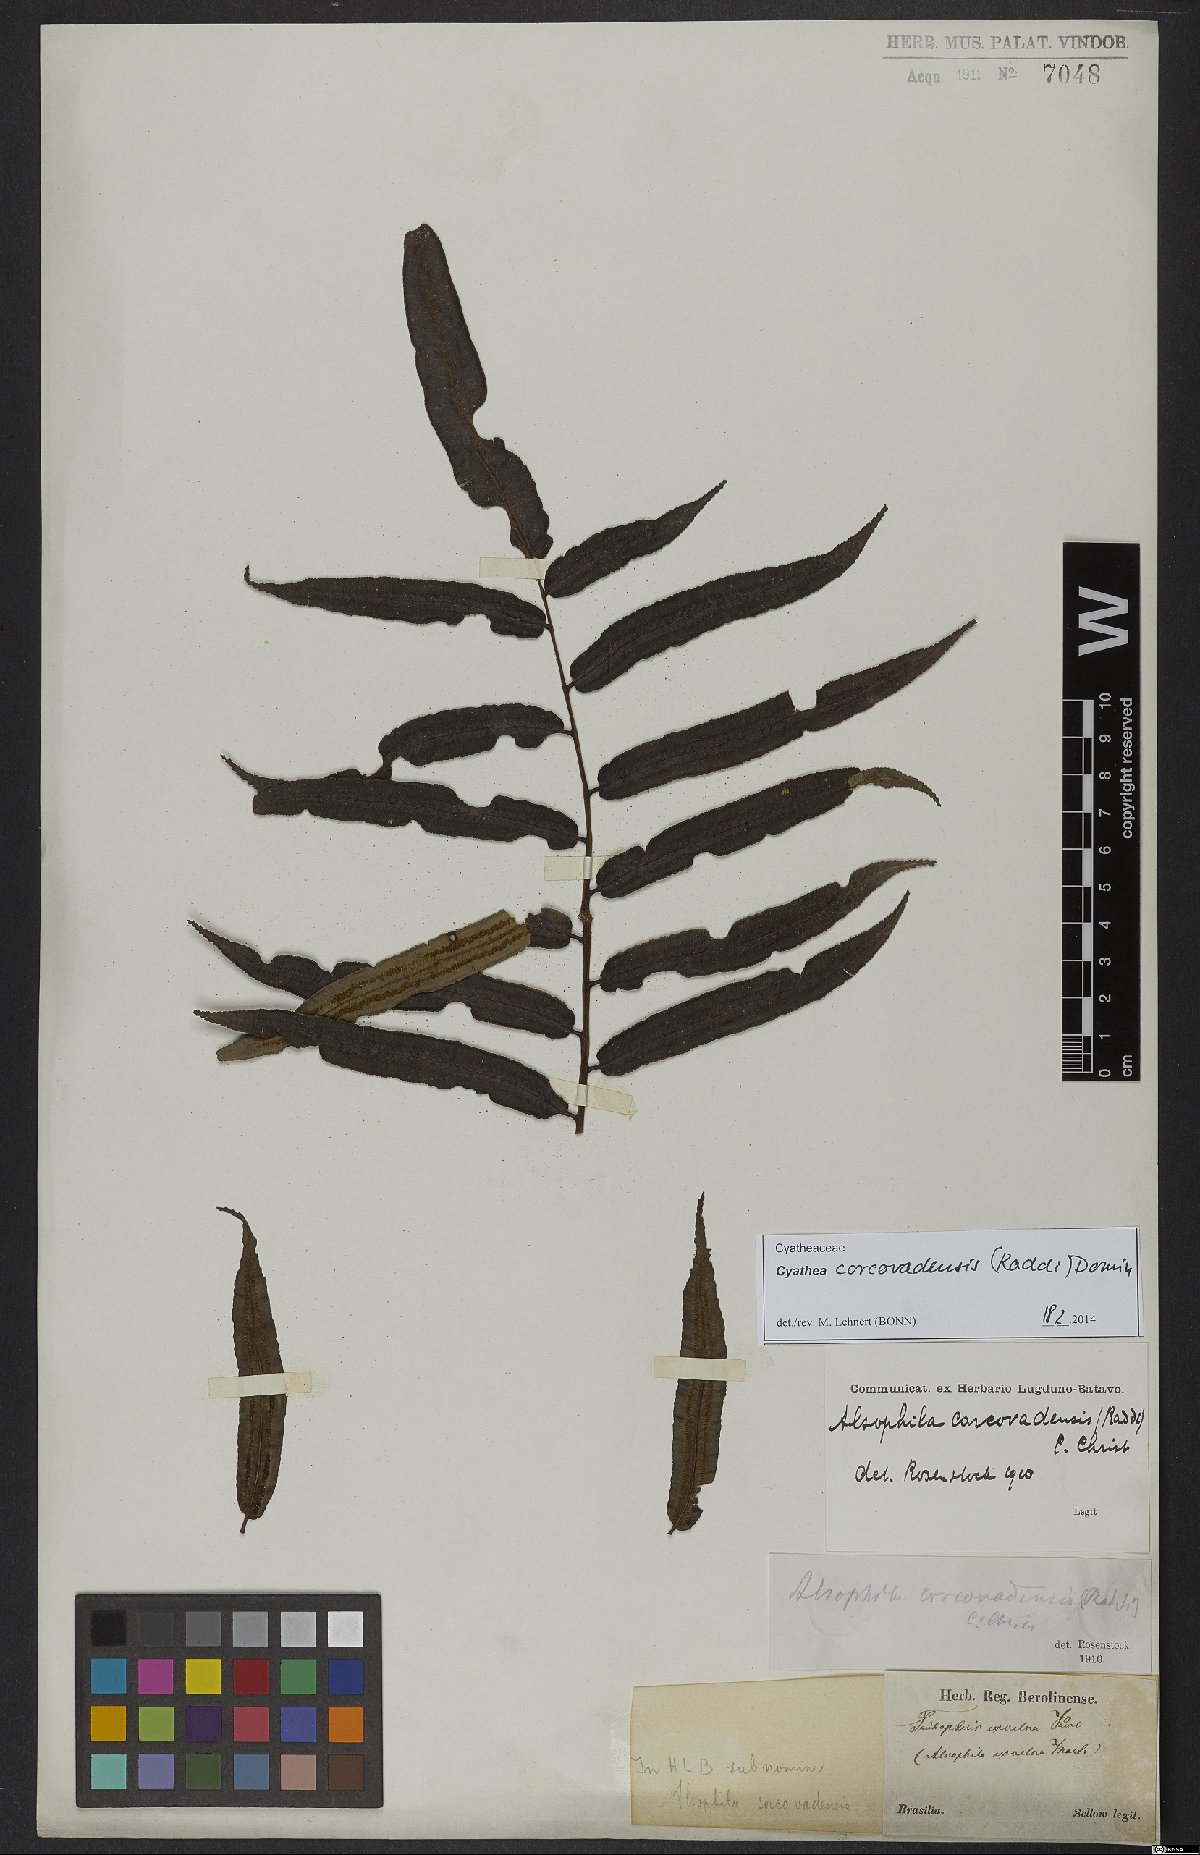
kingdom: Plantae
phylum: Tracheophyta
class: Polypodiopsida
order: Cyatheales
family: Cyatheaceae
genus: Cyathea
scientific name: Cyathea corcovadensis
